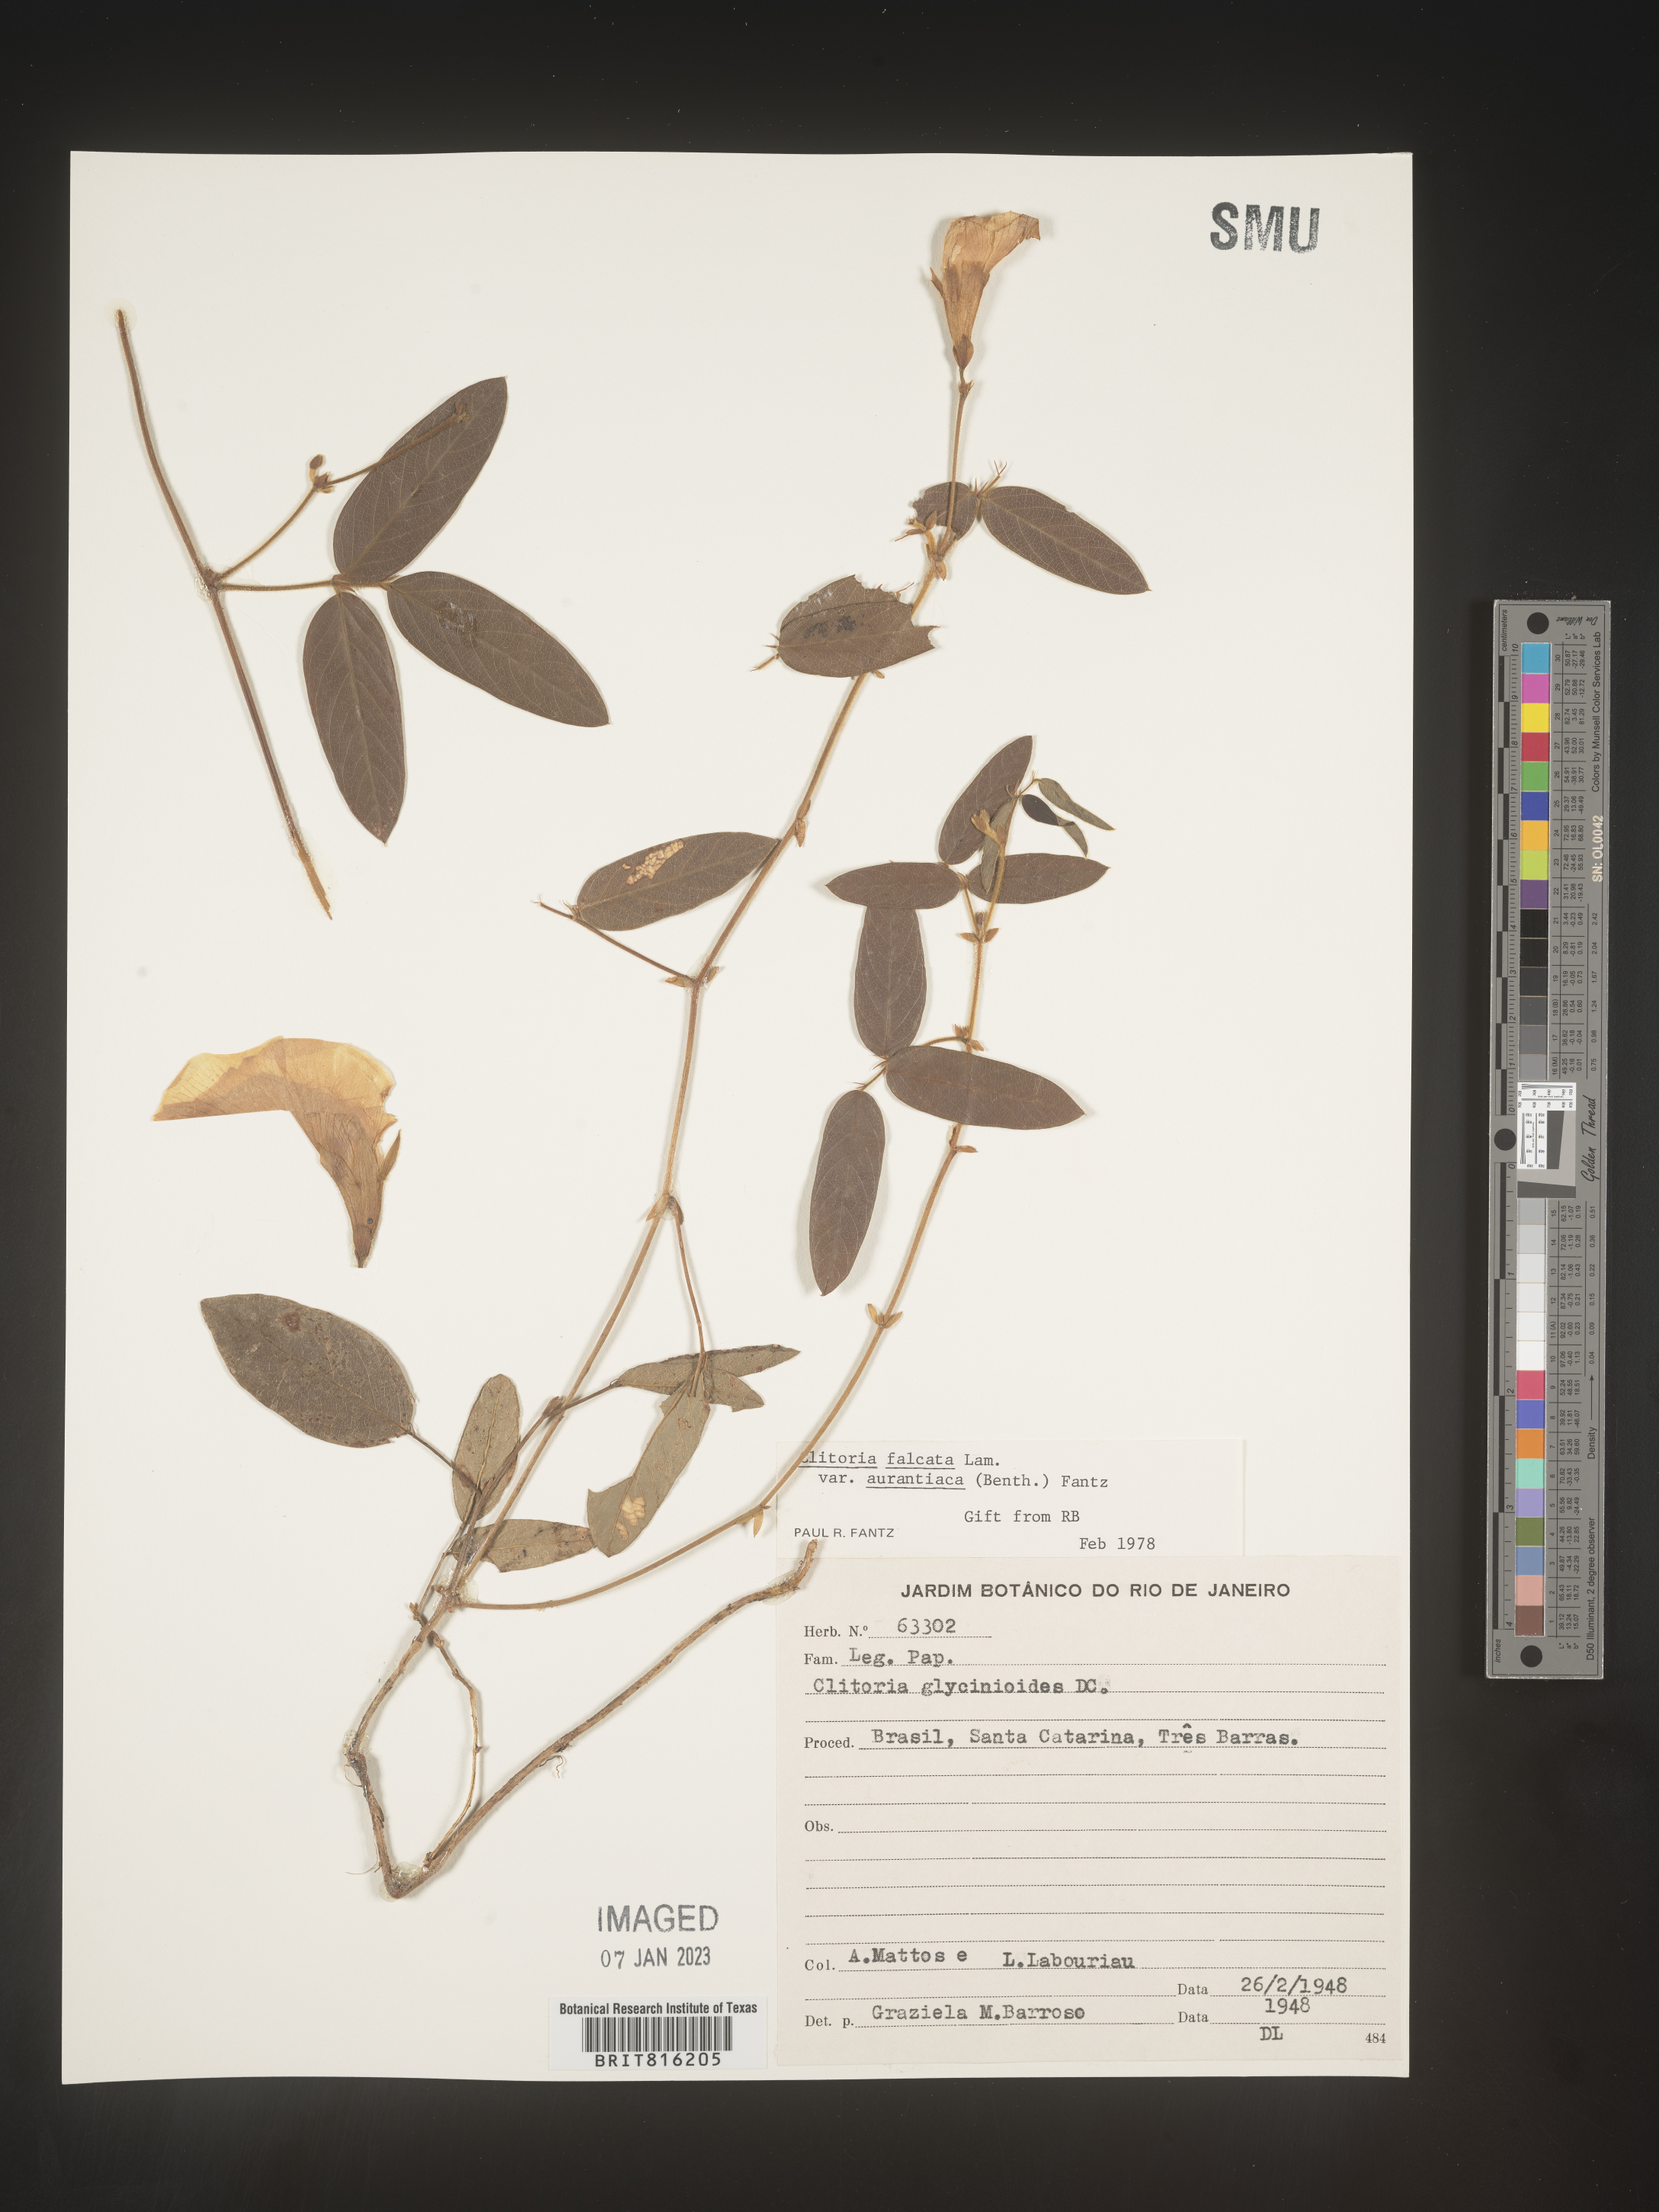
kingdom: Plantae
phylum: Tracheophyta
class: Magnoliopsida
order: Fabales
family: Fabaceae
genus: Clitoria
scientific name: Clitoria
